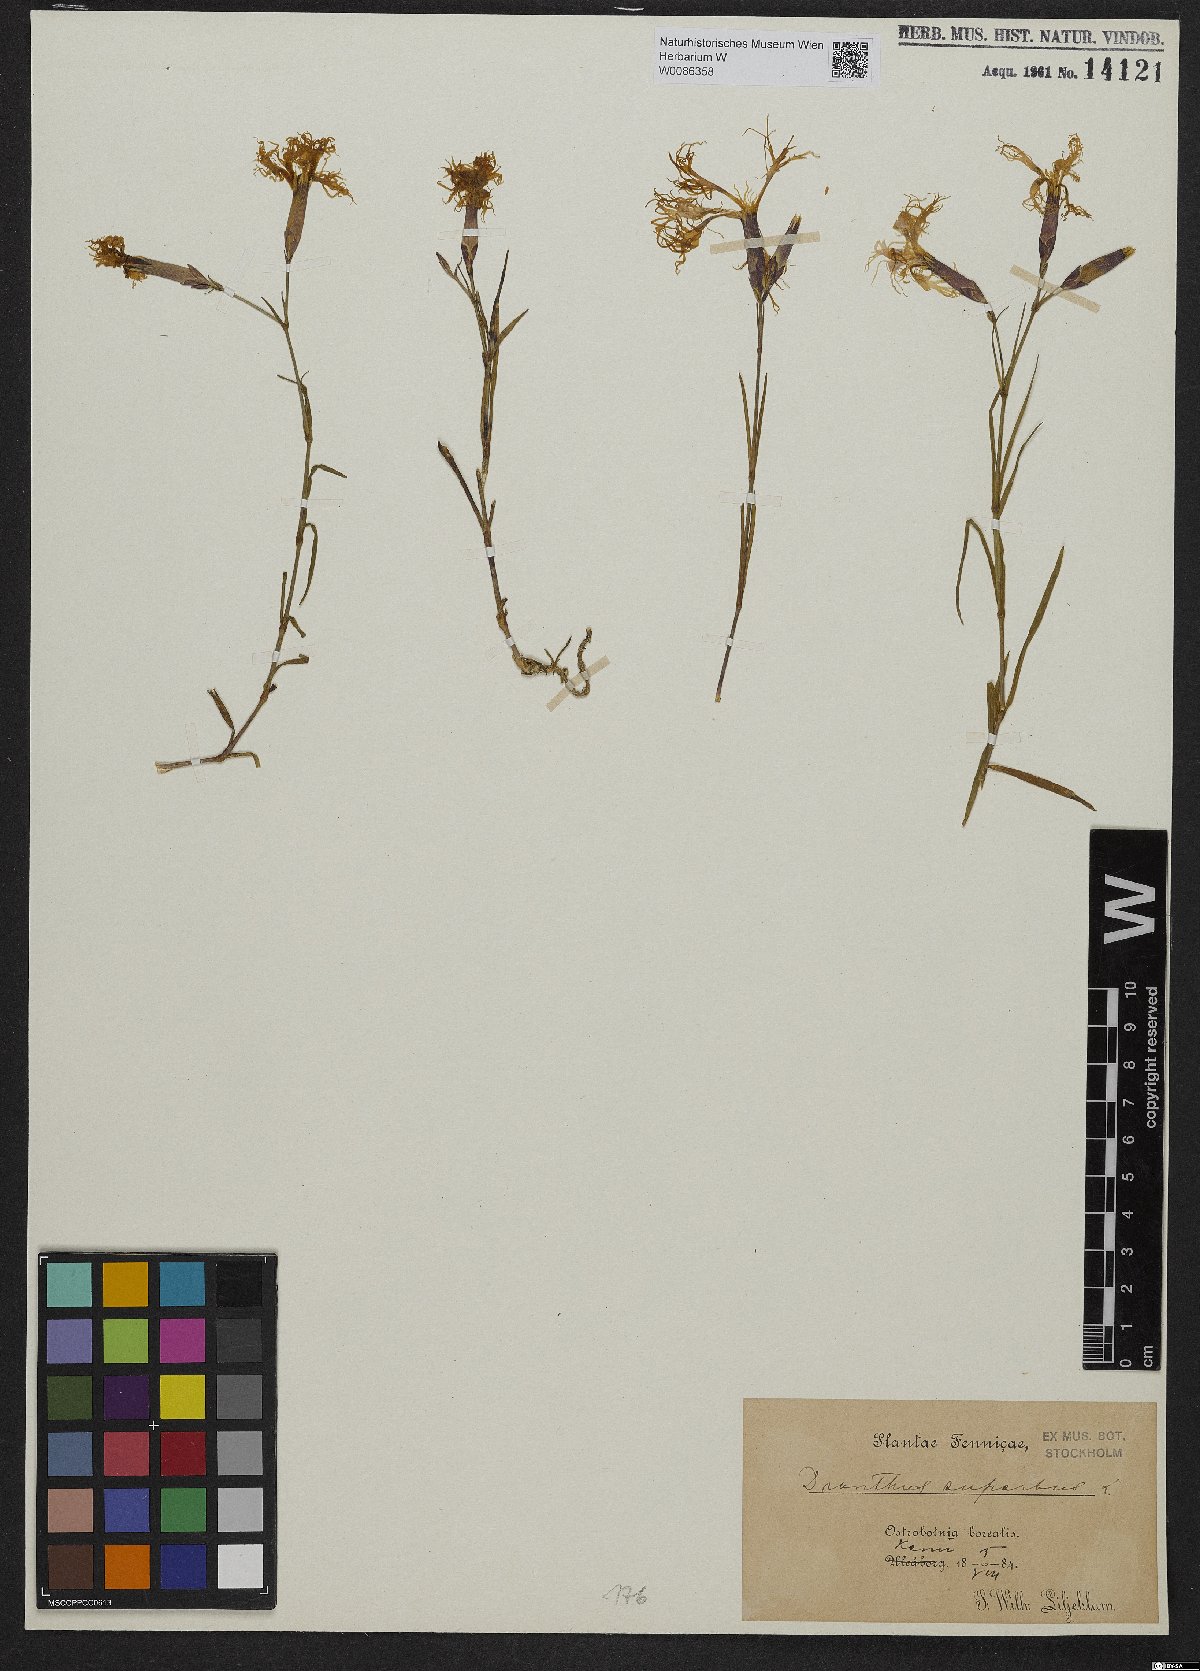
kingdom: Plantae
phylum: Tracheophyta
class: Magnoliopsida
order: Caryophyllales
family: Caryophyllaceae
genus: Dianthus
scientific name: Dianthus superbus
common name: Fringed pink
